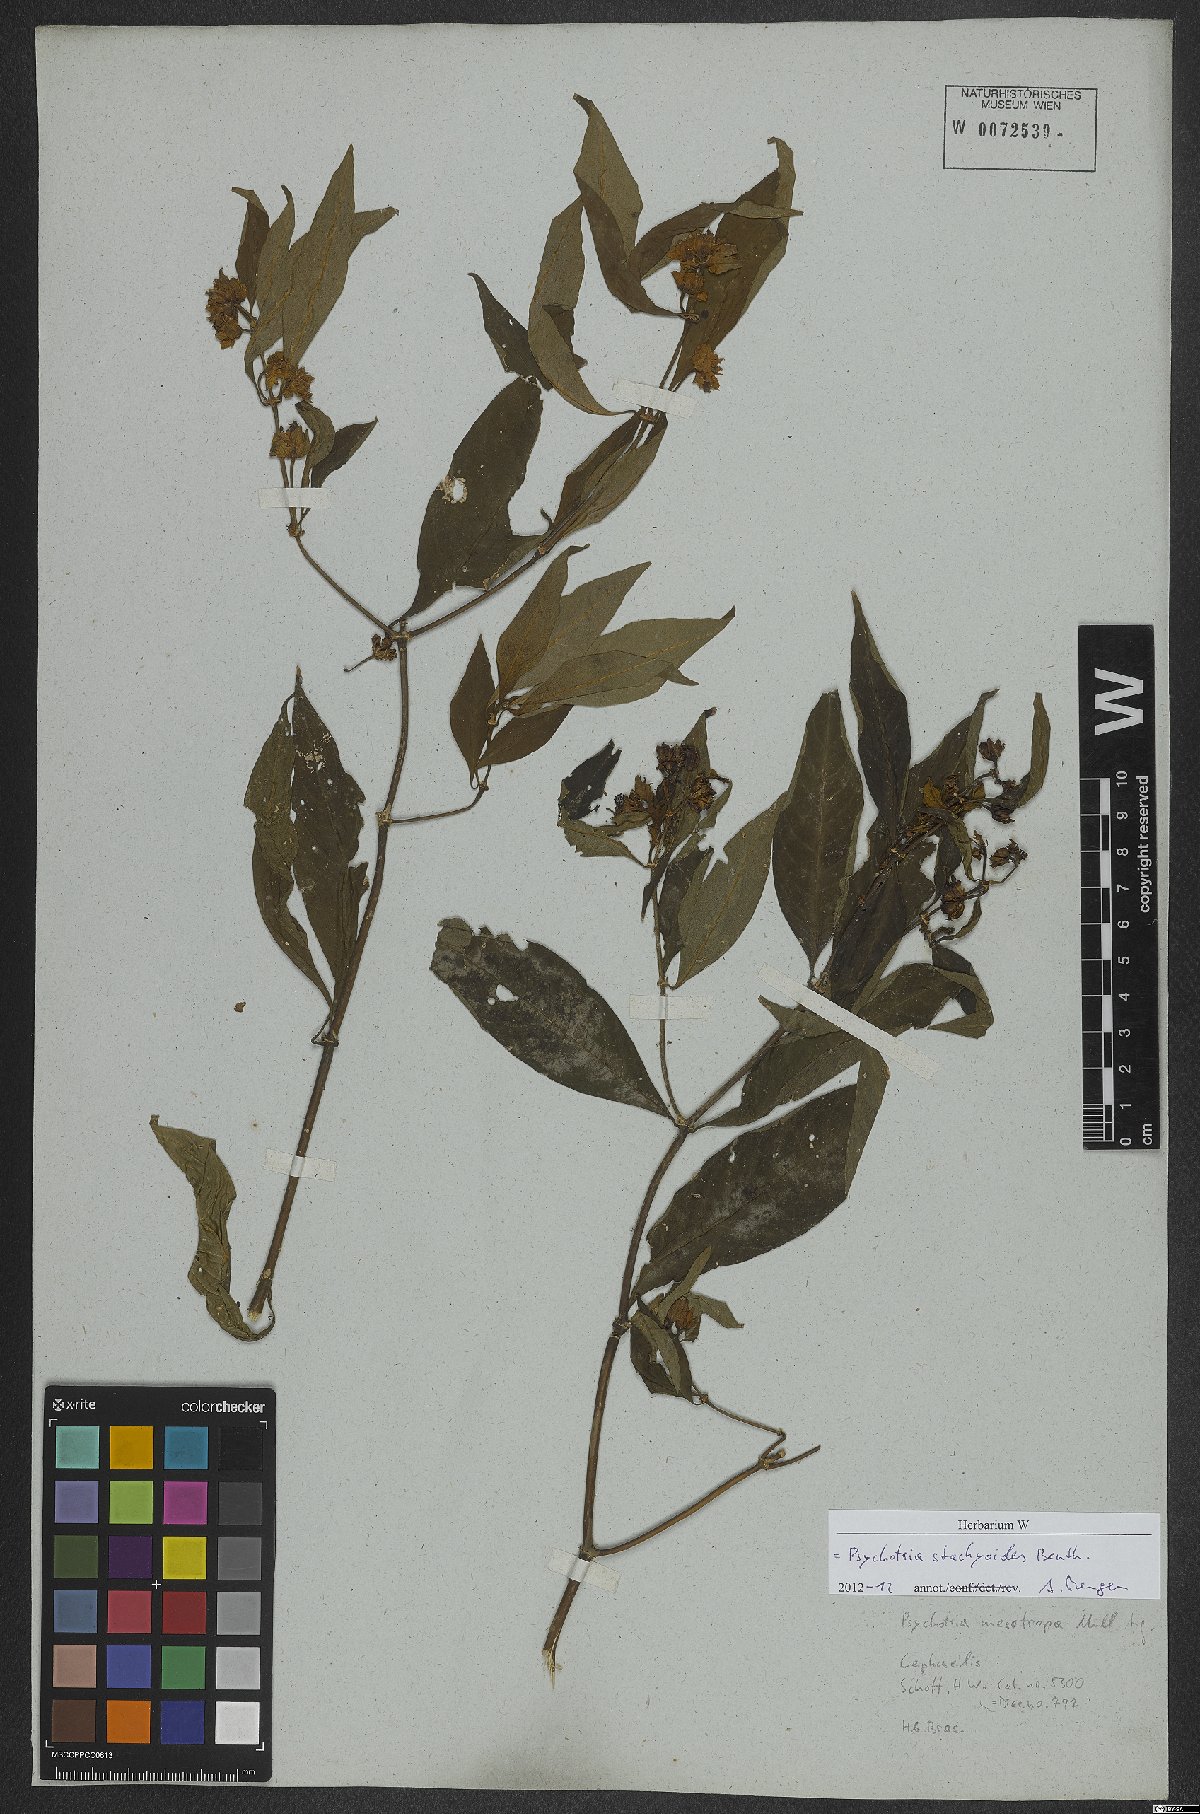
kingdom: Plantae
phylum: Tracheophyta
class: Magnoliopsida
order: Gentianales
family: Rubiaceae
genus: Psychotria
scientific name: Psychotria stachyoides
